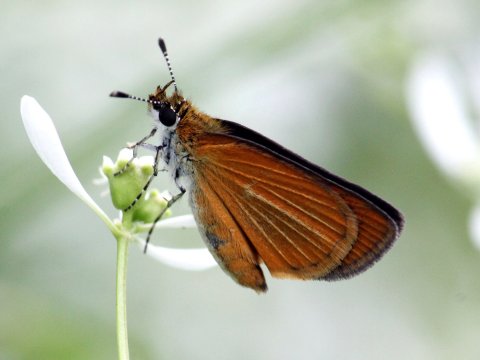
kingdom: Animalia
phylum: Arthropoda
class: Insecta
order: Lepidoptera
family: Hesperiidae
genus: Ancyloxypha
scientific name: Ancyloxypha numitor
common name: Least Skipper
